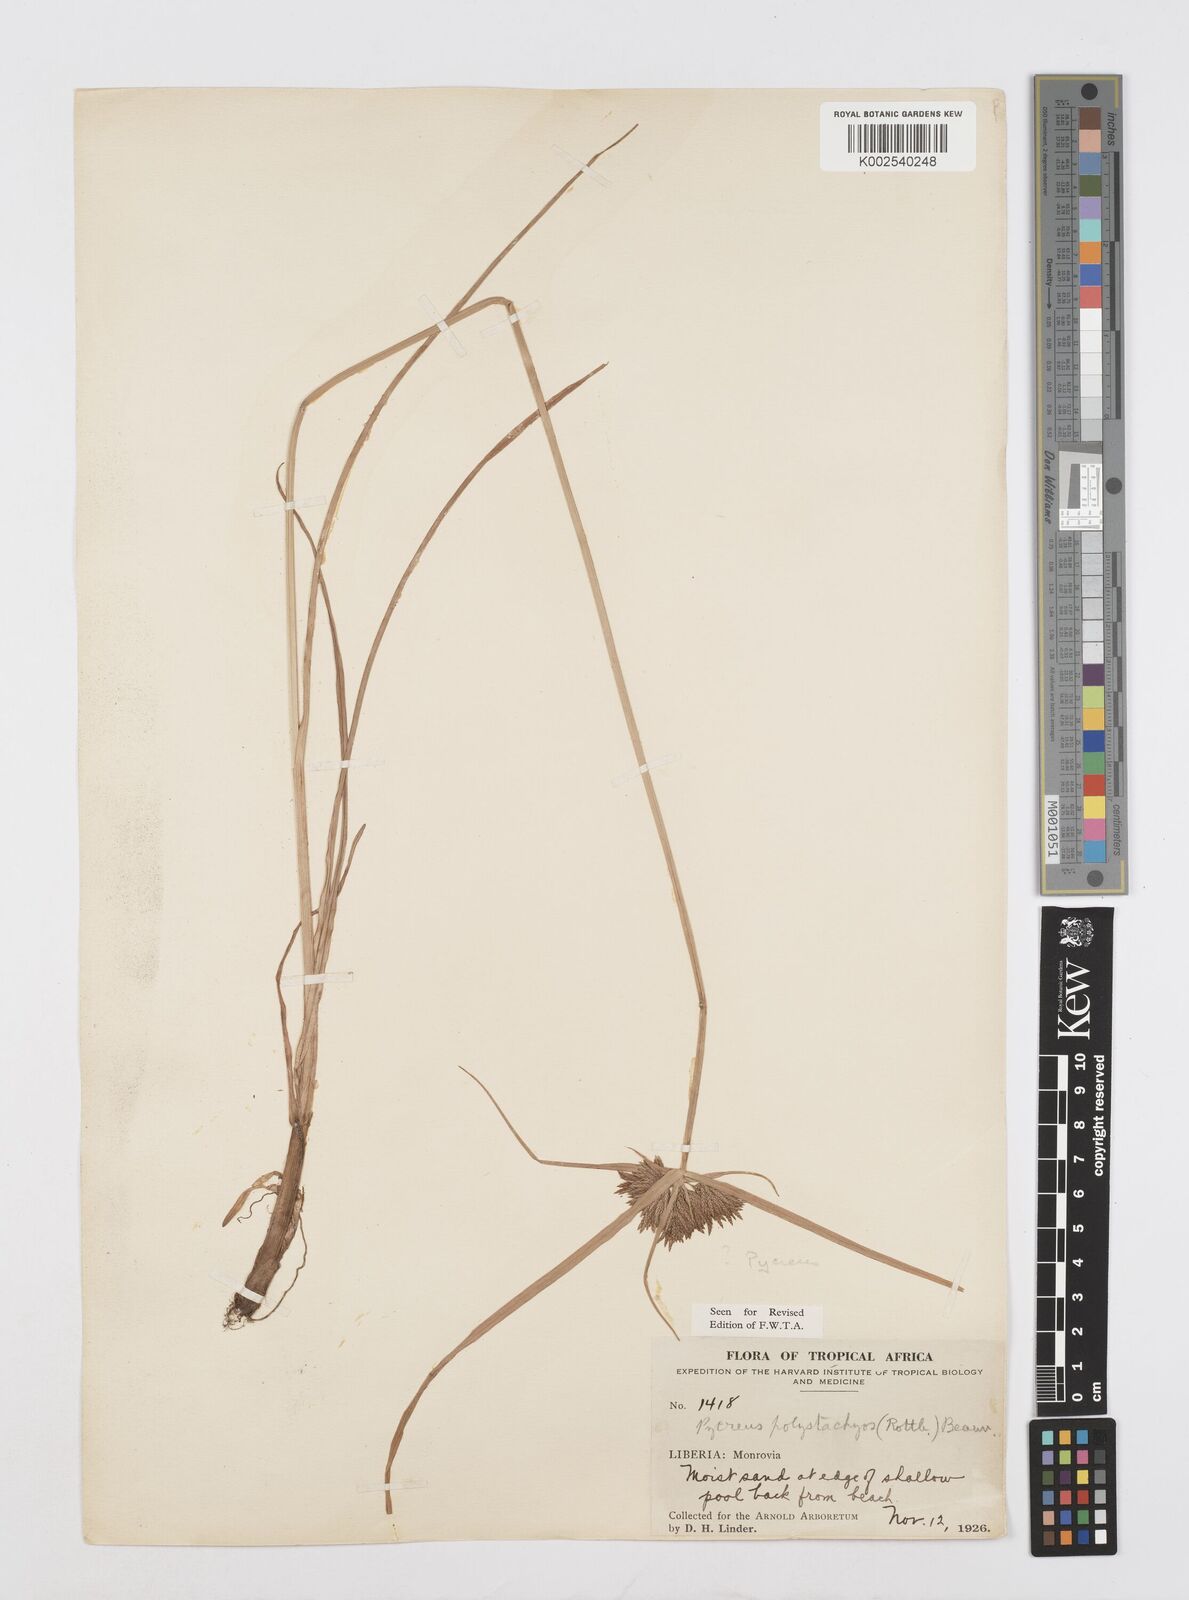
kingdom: Plantae
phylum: Tracheophyta
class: Liliopsida
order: Poales
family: Cyperaceae
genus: Cyperus
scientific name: Cyperus polystachyos
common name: Bunchy flat sedge
